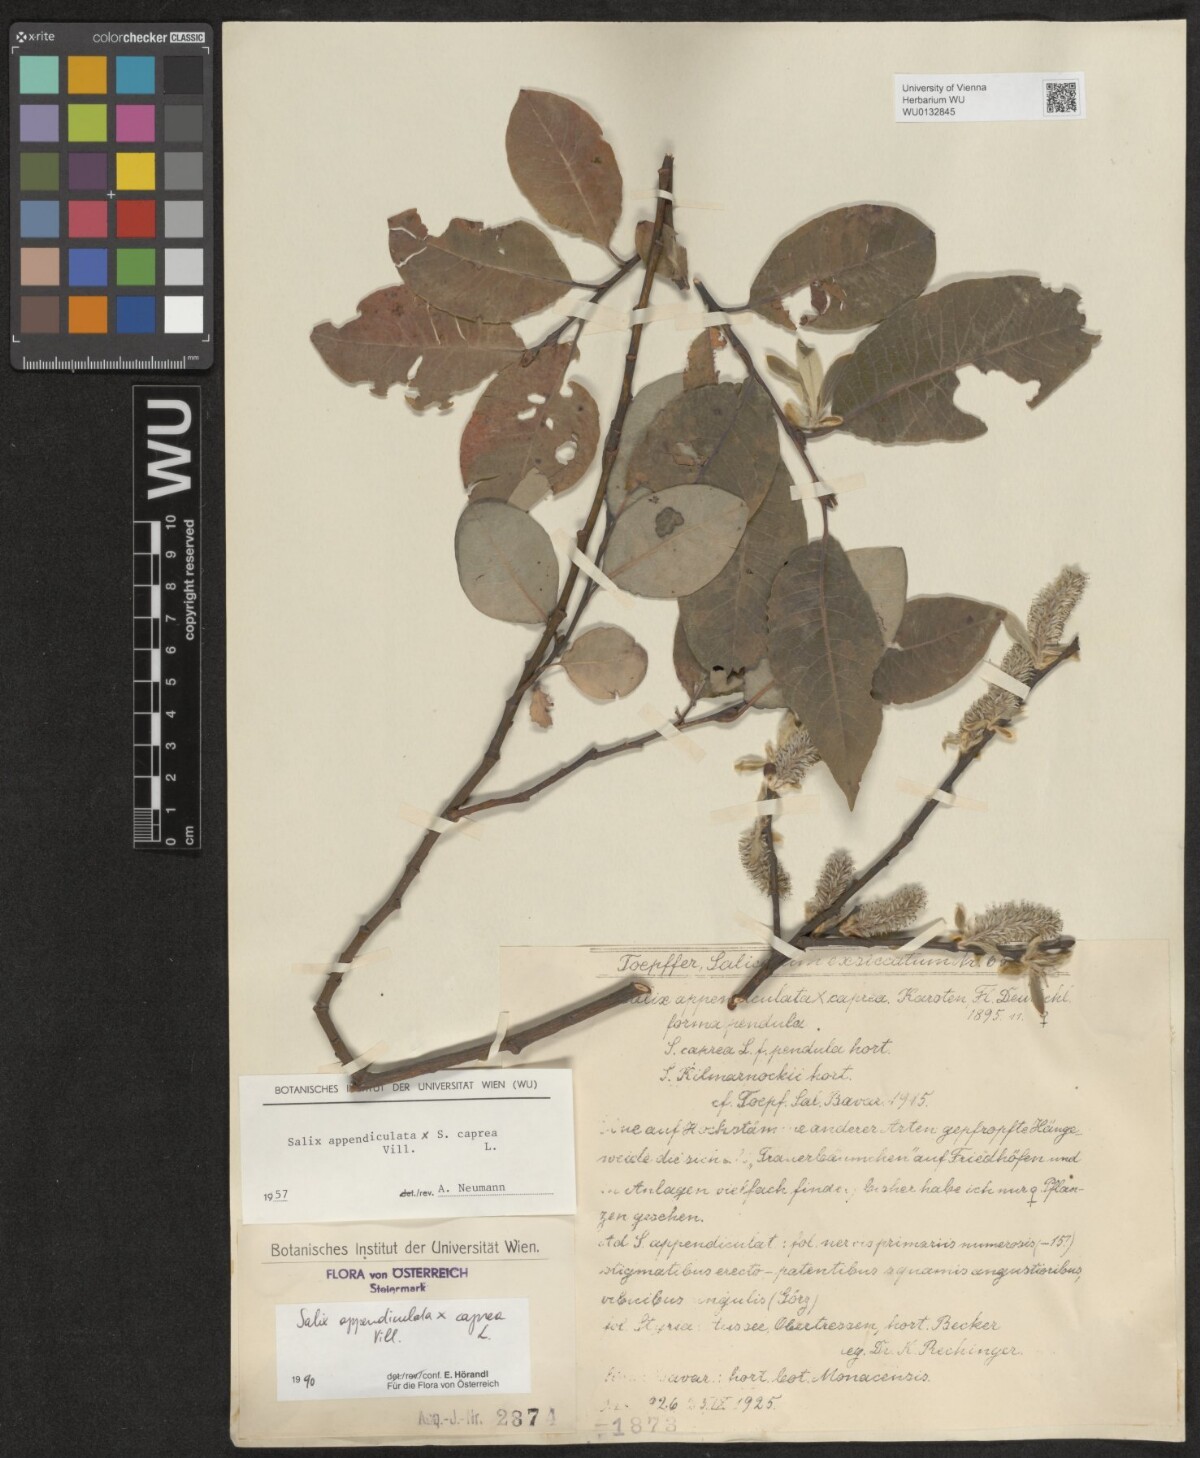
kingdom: Plantae
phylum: Tracheophyta
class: Magnoliopsida
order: Malpighiales
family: Salicaceae
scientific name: Salicaceae
